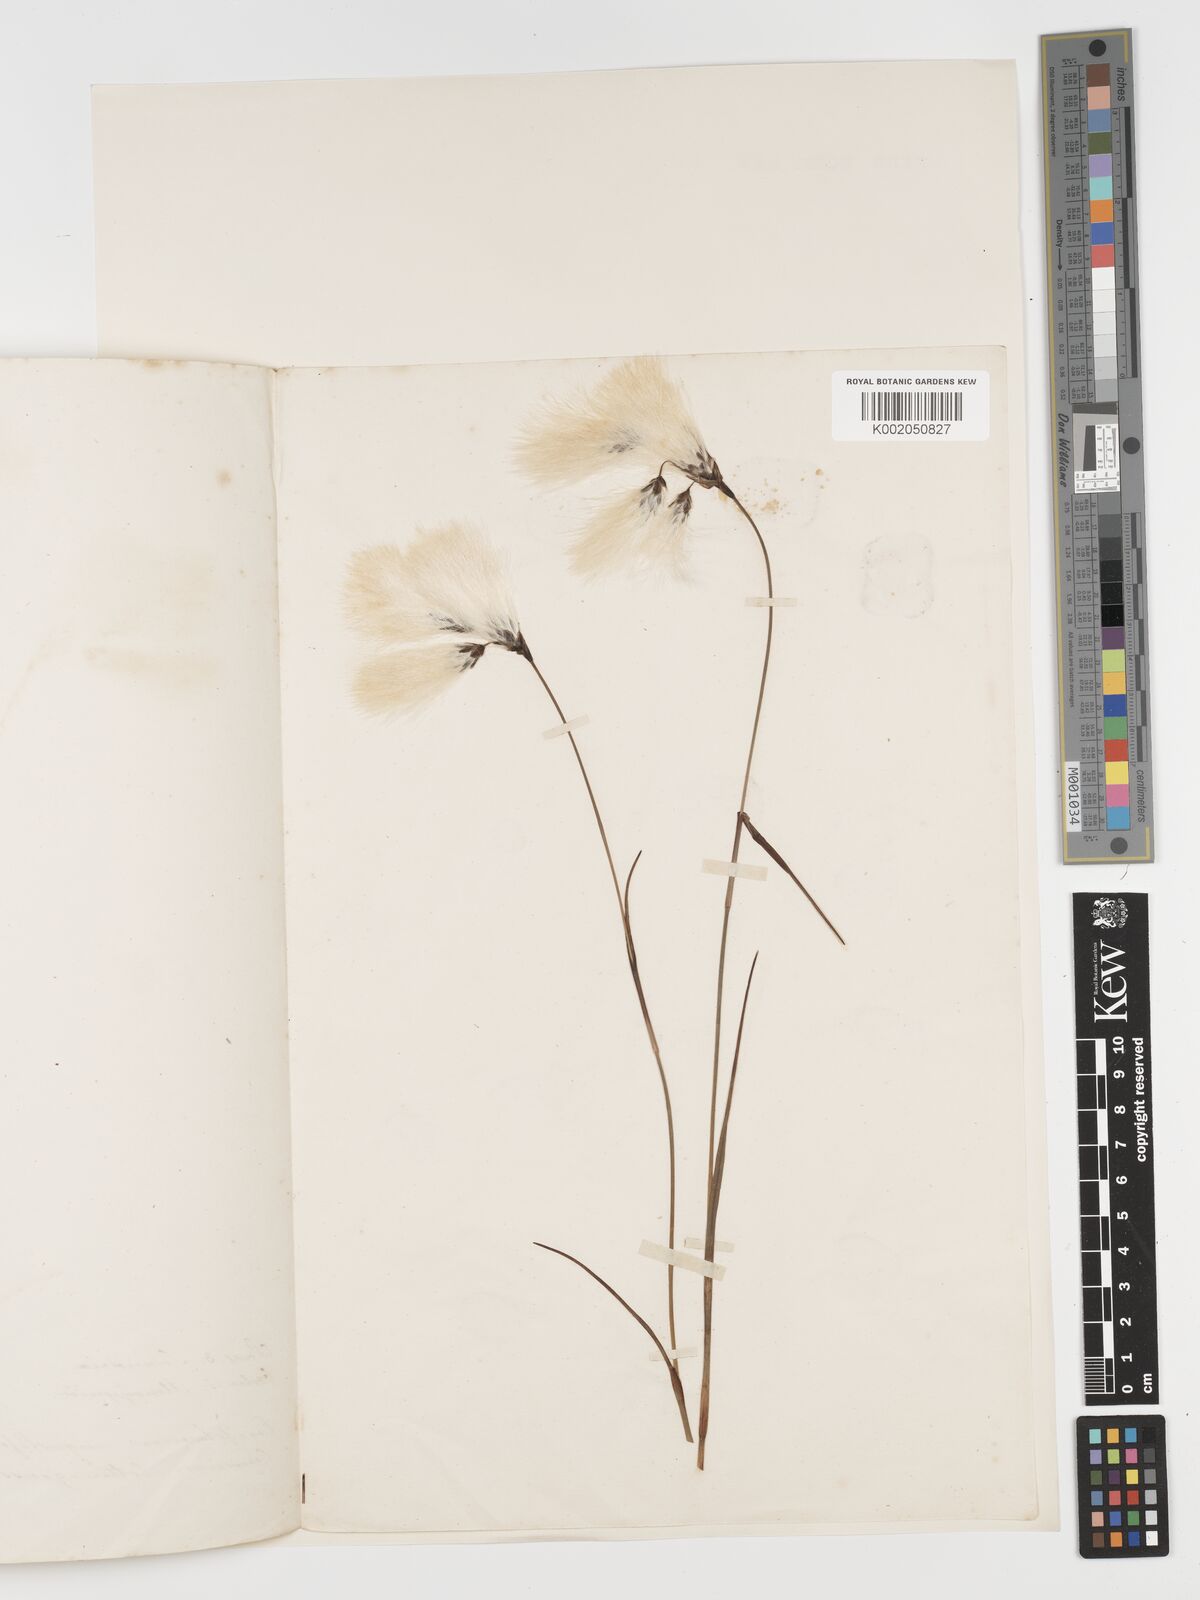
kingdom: Plantae
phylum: Tracheophyta
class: Liliopsida
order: Poales
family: Cyperaceae
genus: Eriophorum
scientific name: Eriophorum angustifolium
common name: Common cottongrass
